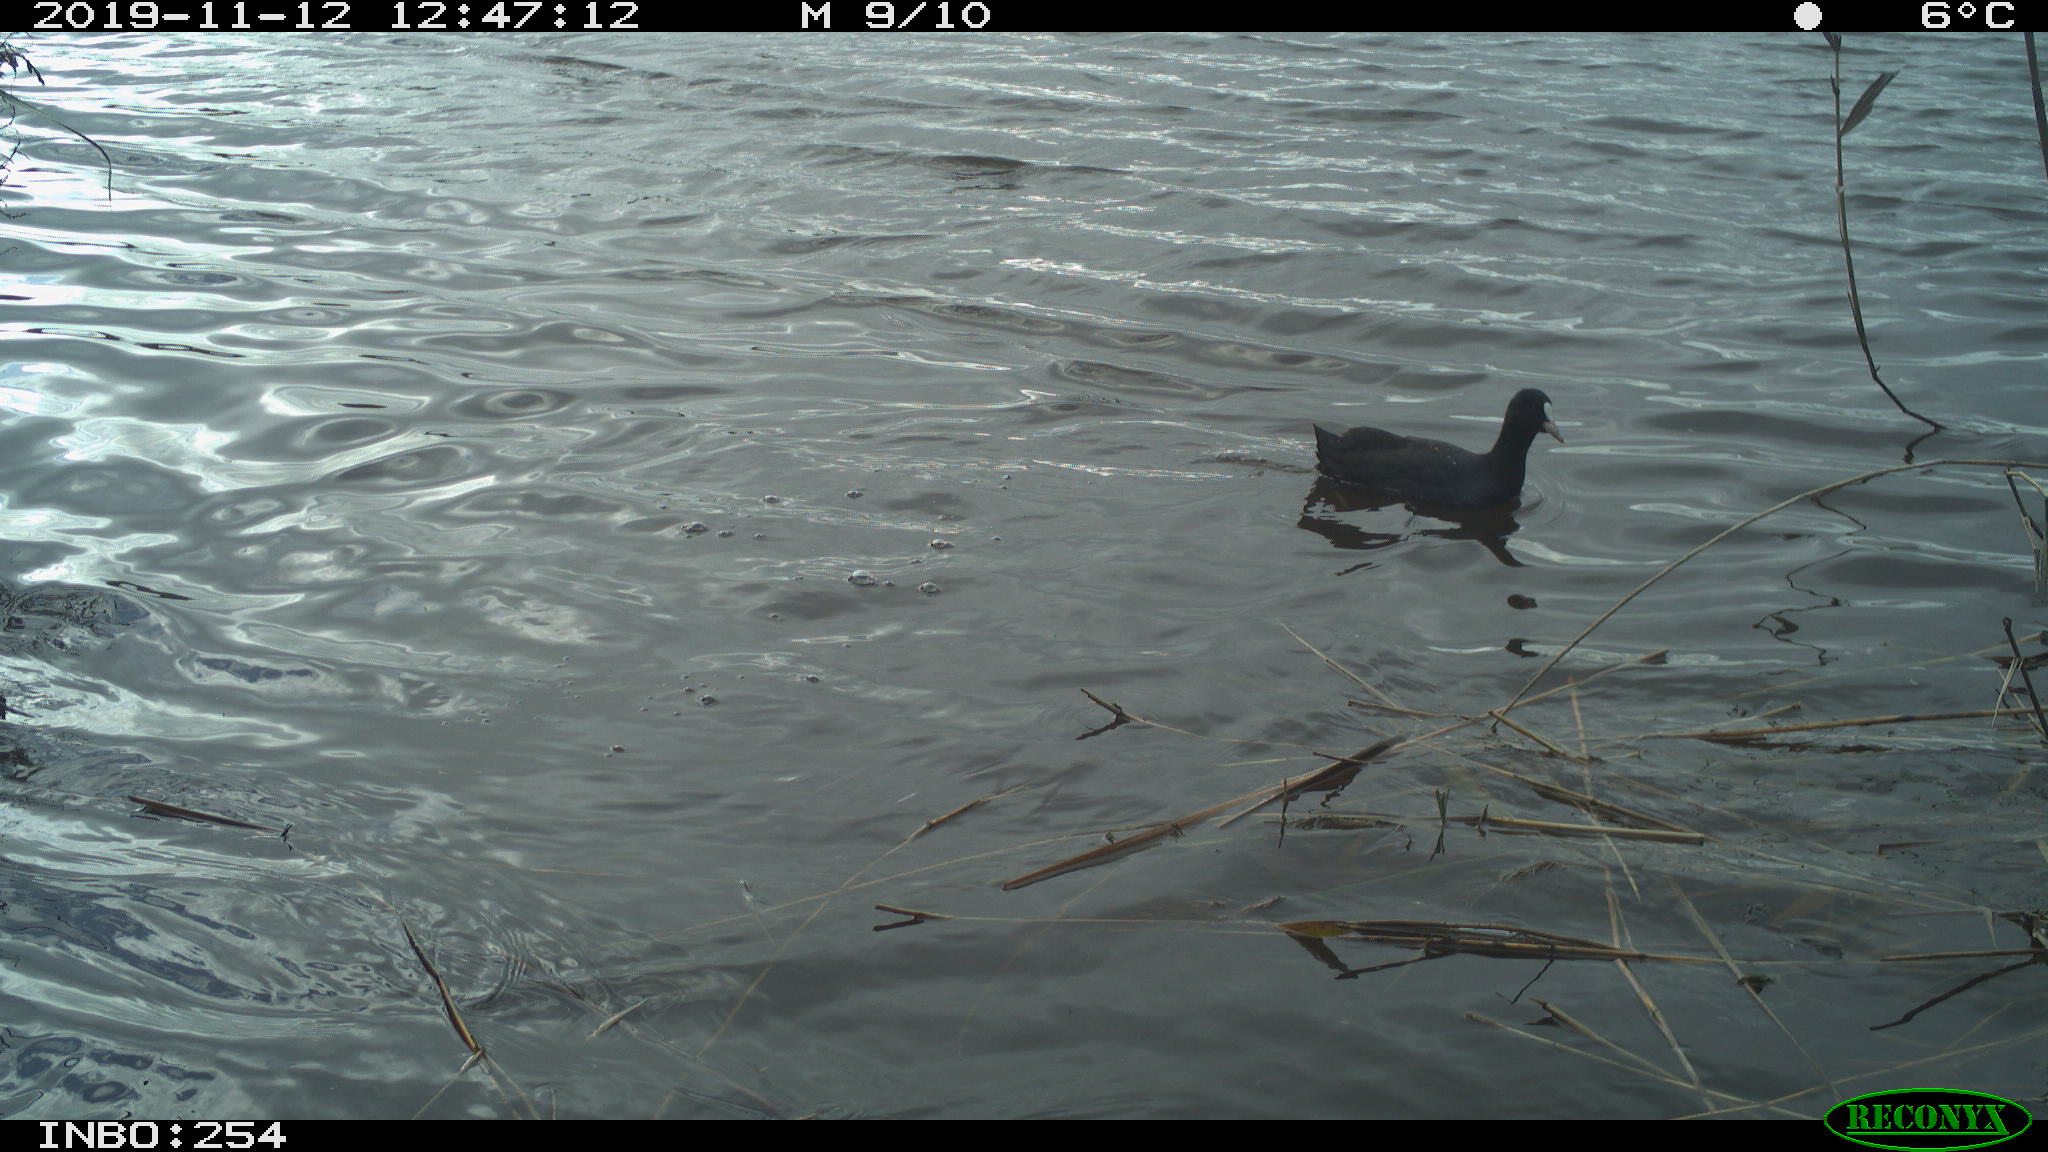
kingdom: Animalia
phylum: Chordata
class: Aves
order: Gruiformes
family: Rallidae
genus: Fulica
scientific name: Fulica atra
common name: Eurasian coot
